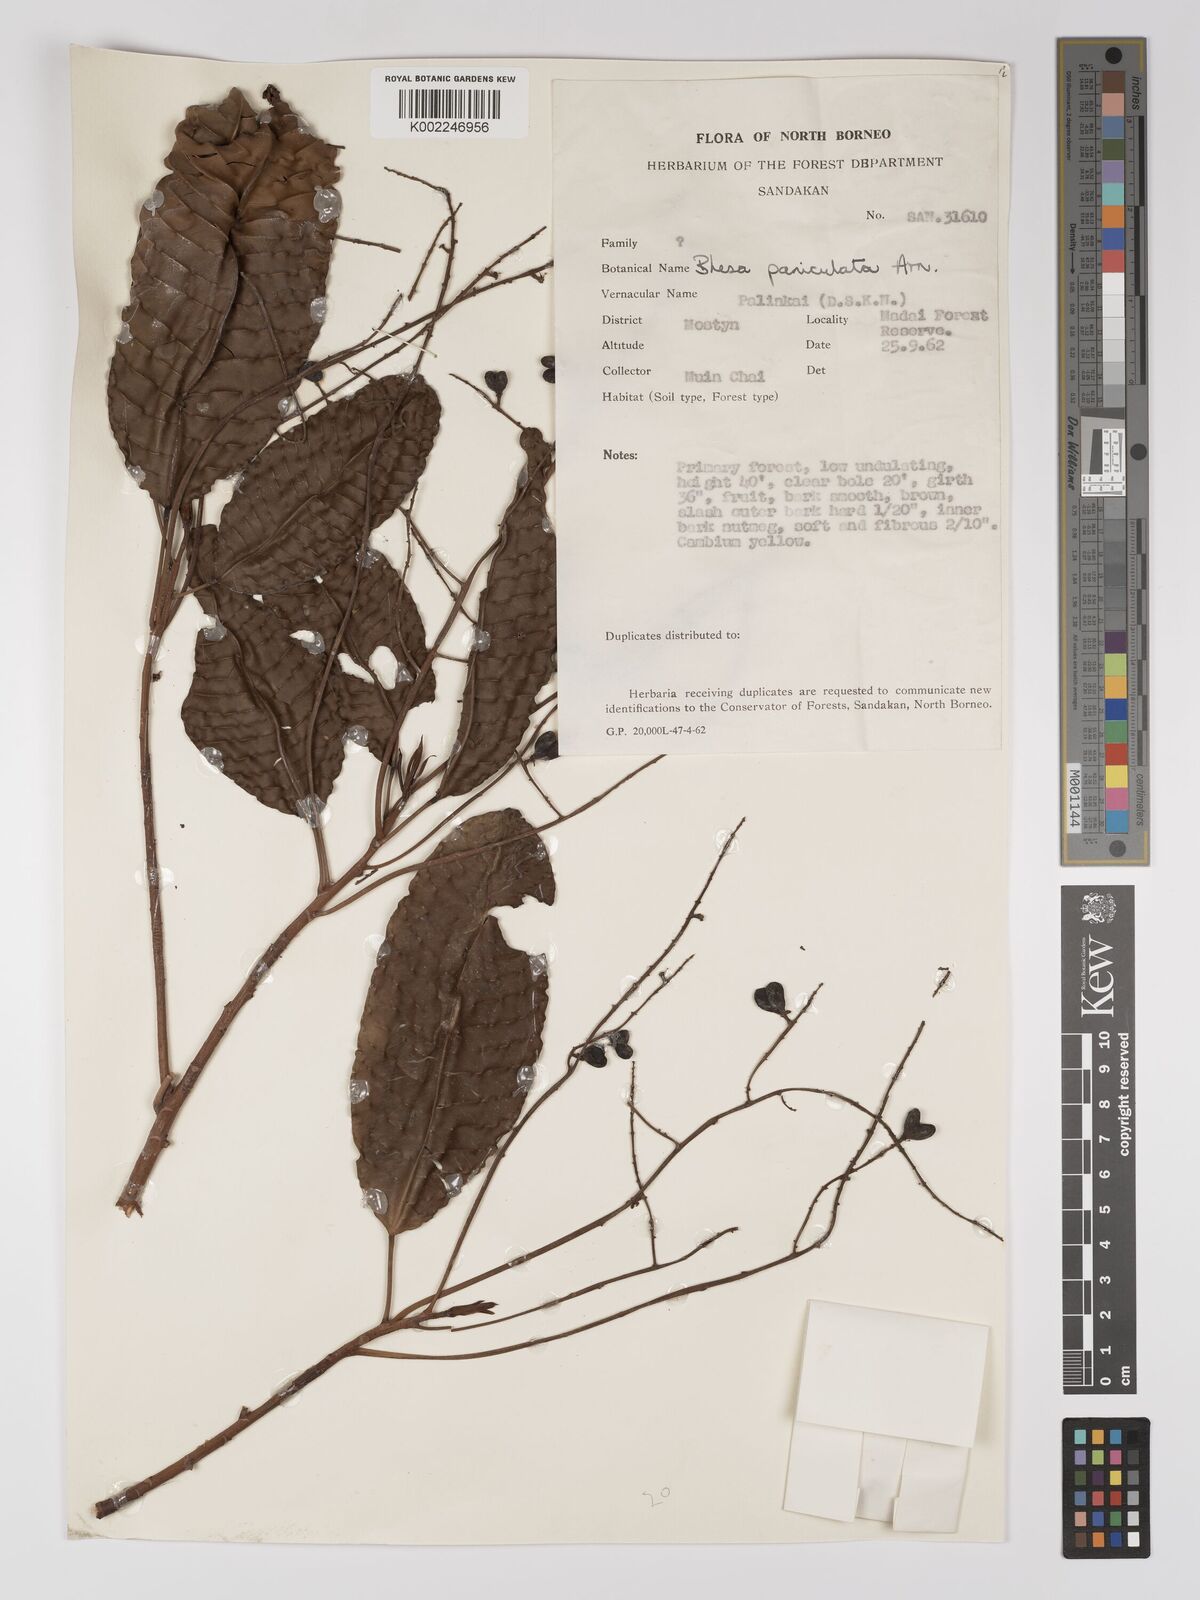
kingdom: Plantae
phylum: Tracheophyta
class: Magnoliopsida
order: Malpighiales
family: Centroplacaceae
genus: Bhesa
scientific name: Bhesa paniculata
